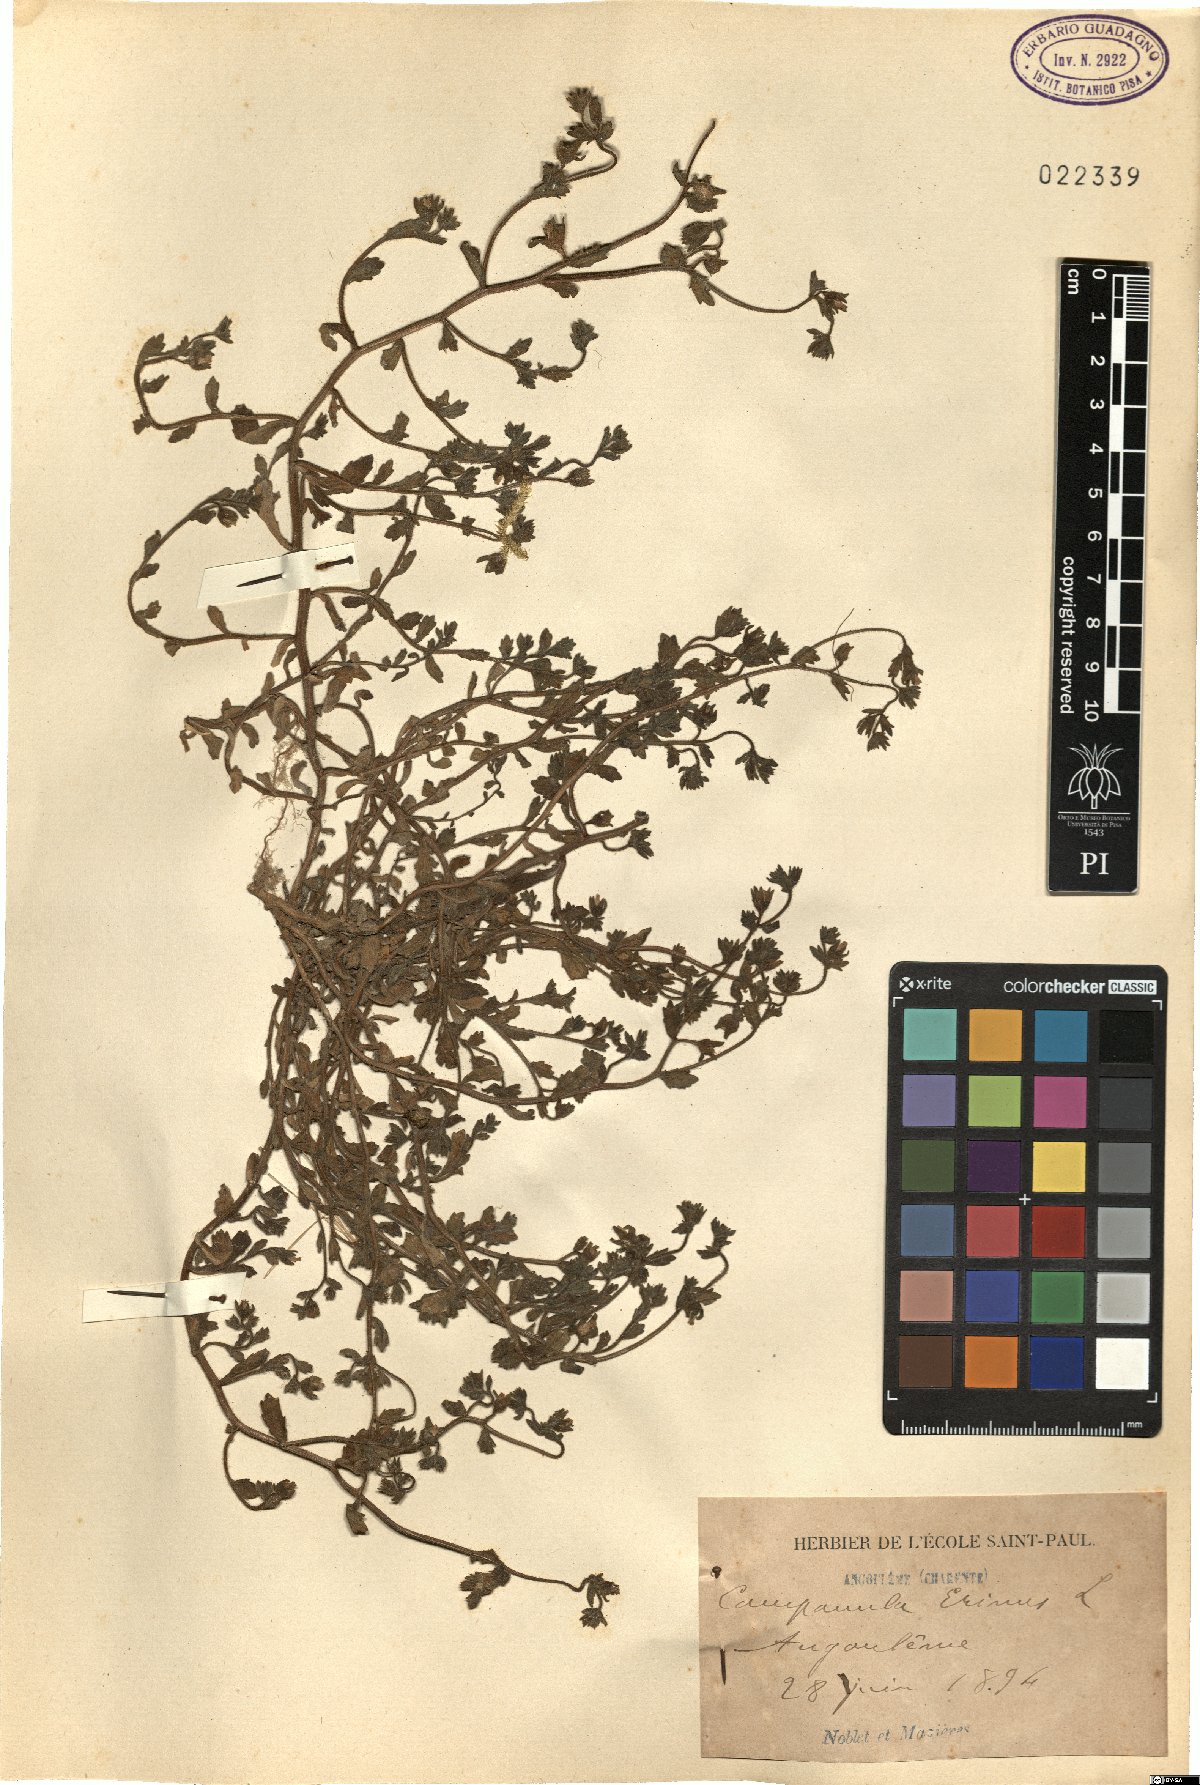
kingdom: Plantae
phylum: Tracheophyta
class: Magnoliopsida
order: Asterales
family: Campanulaceae
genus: Campanula
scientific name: Campanula erinus
